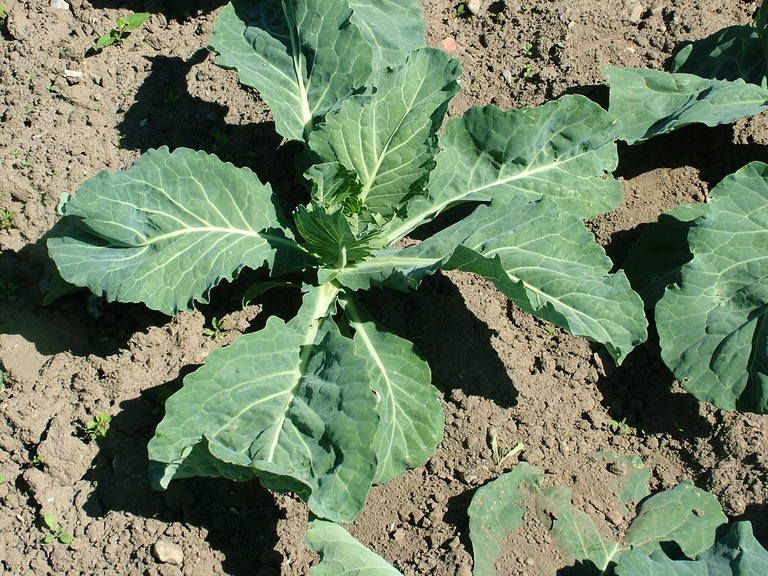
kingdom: Plantae
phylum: Tracheophyta
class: Magnoliopsida
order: Brassicales
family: Brassicaceae
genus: Brassica
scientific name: Brassica oleracea
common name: Cabbage
